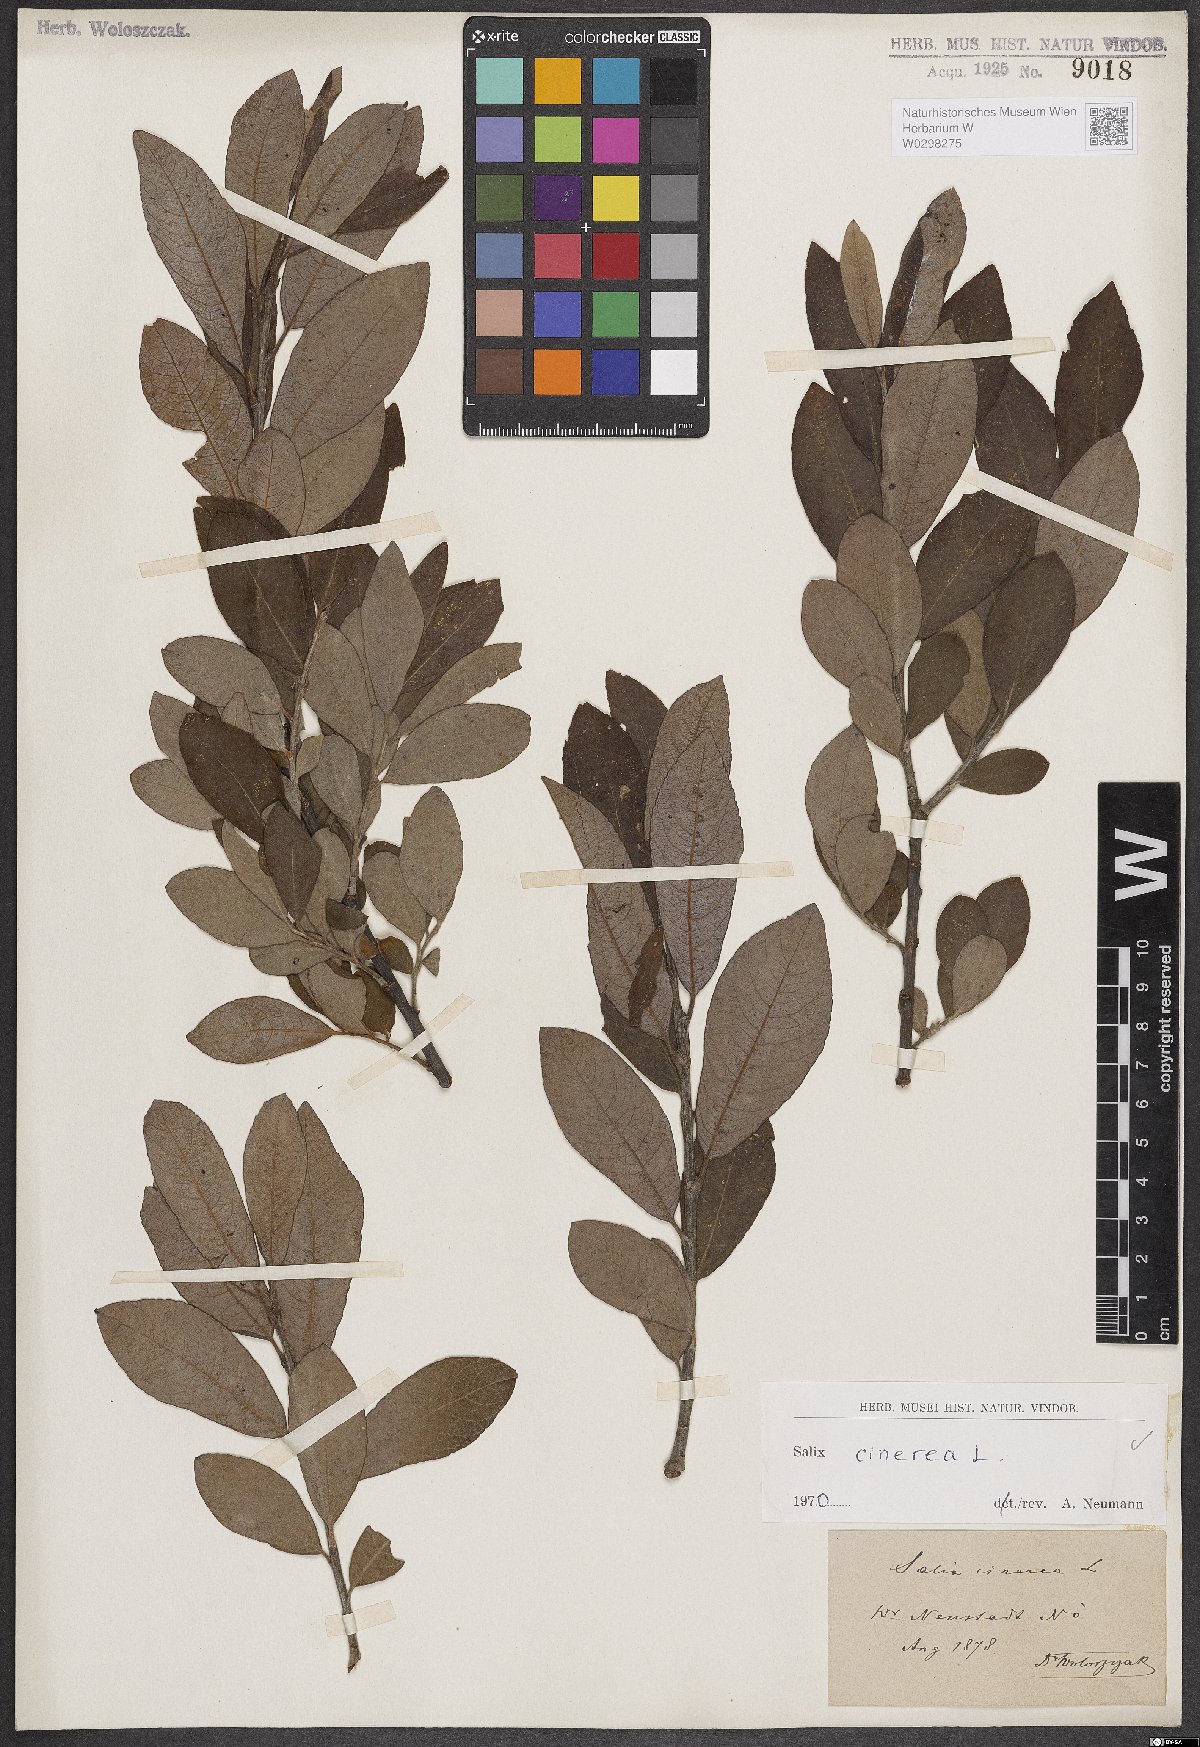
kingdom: Plantae
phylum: Tracheophyta
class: Magnoliopsida
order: Malpighiales
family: Salicaceae
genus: Salix
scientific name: Salix cinerea
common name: Common sallow
